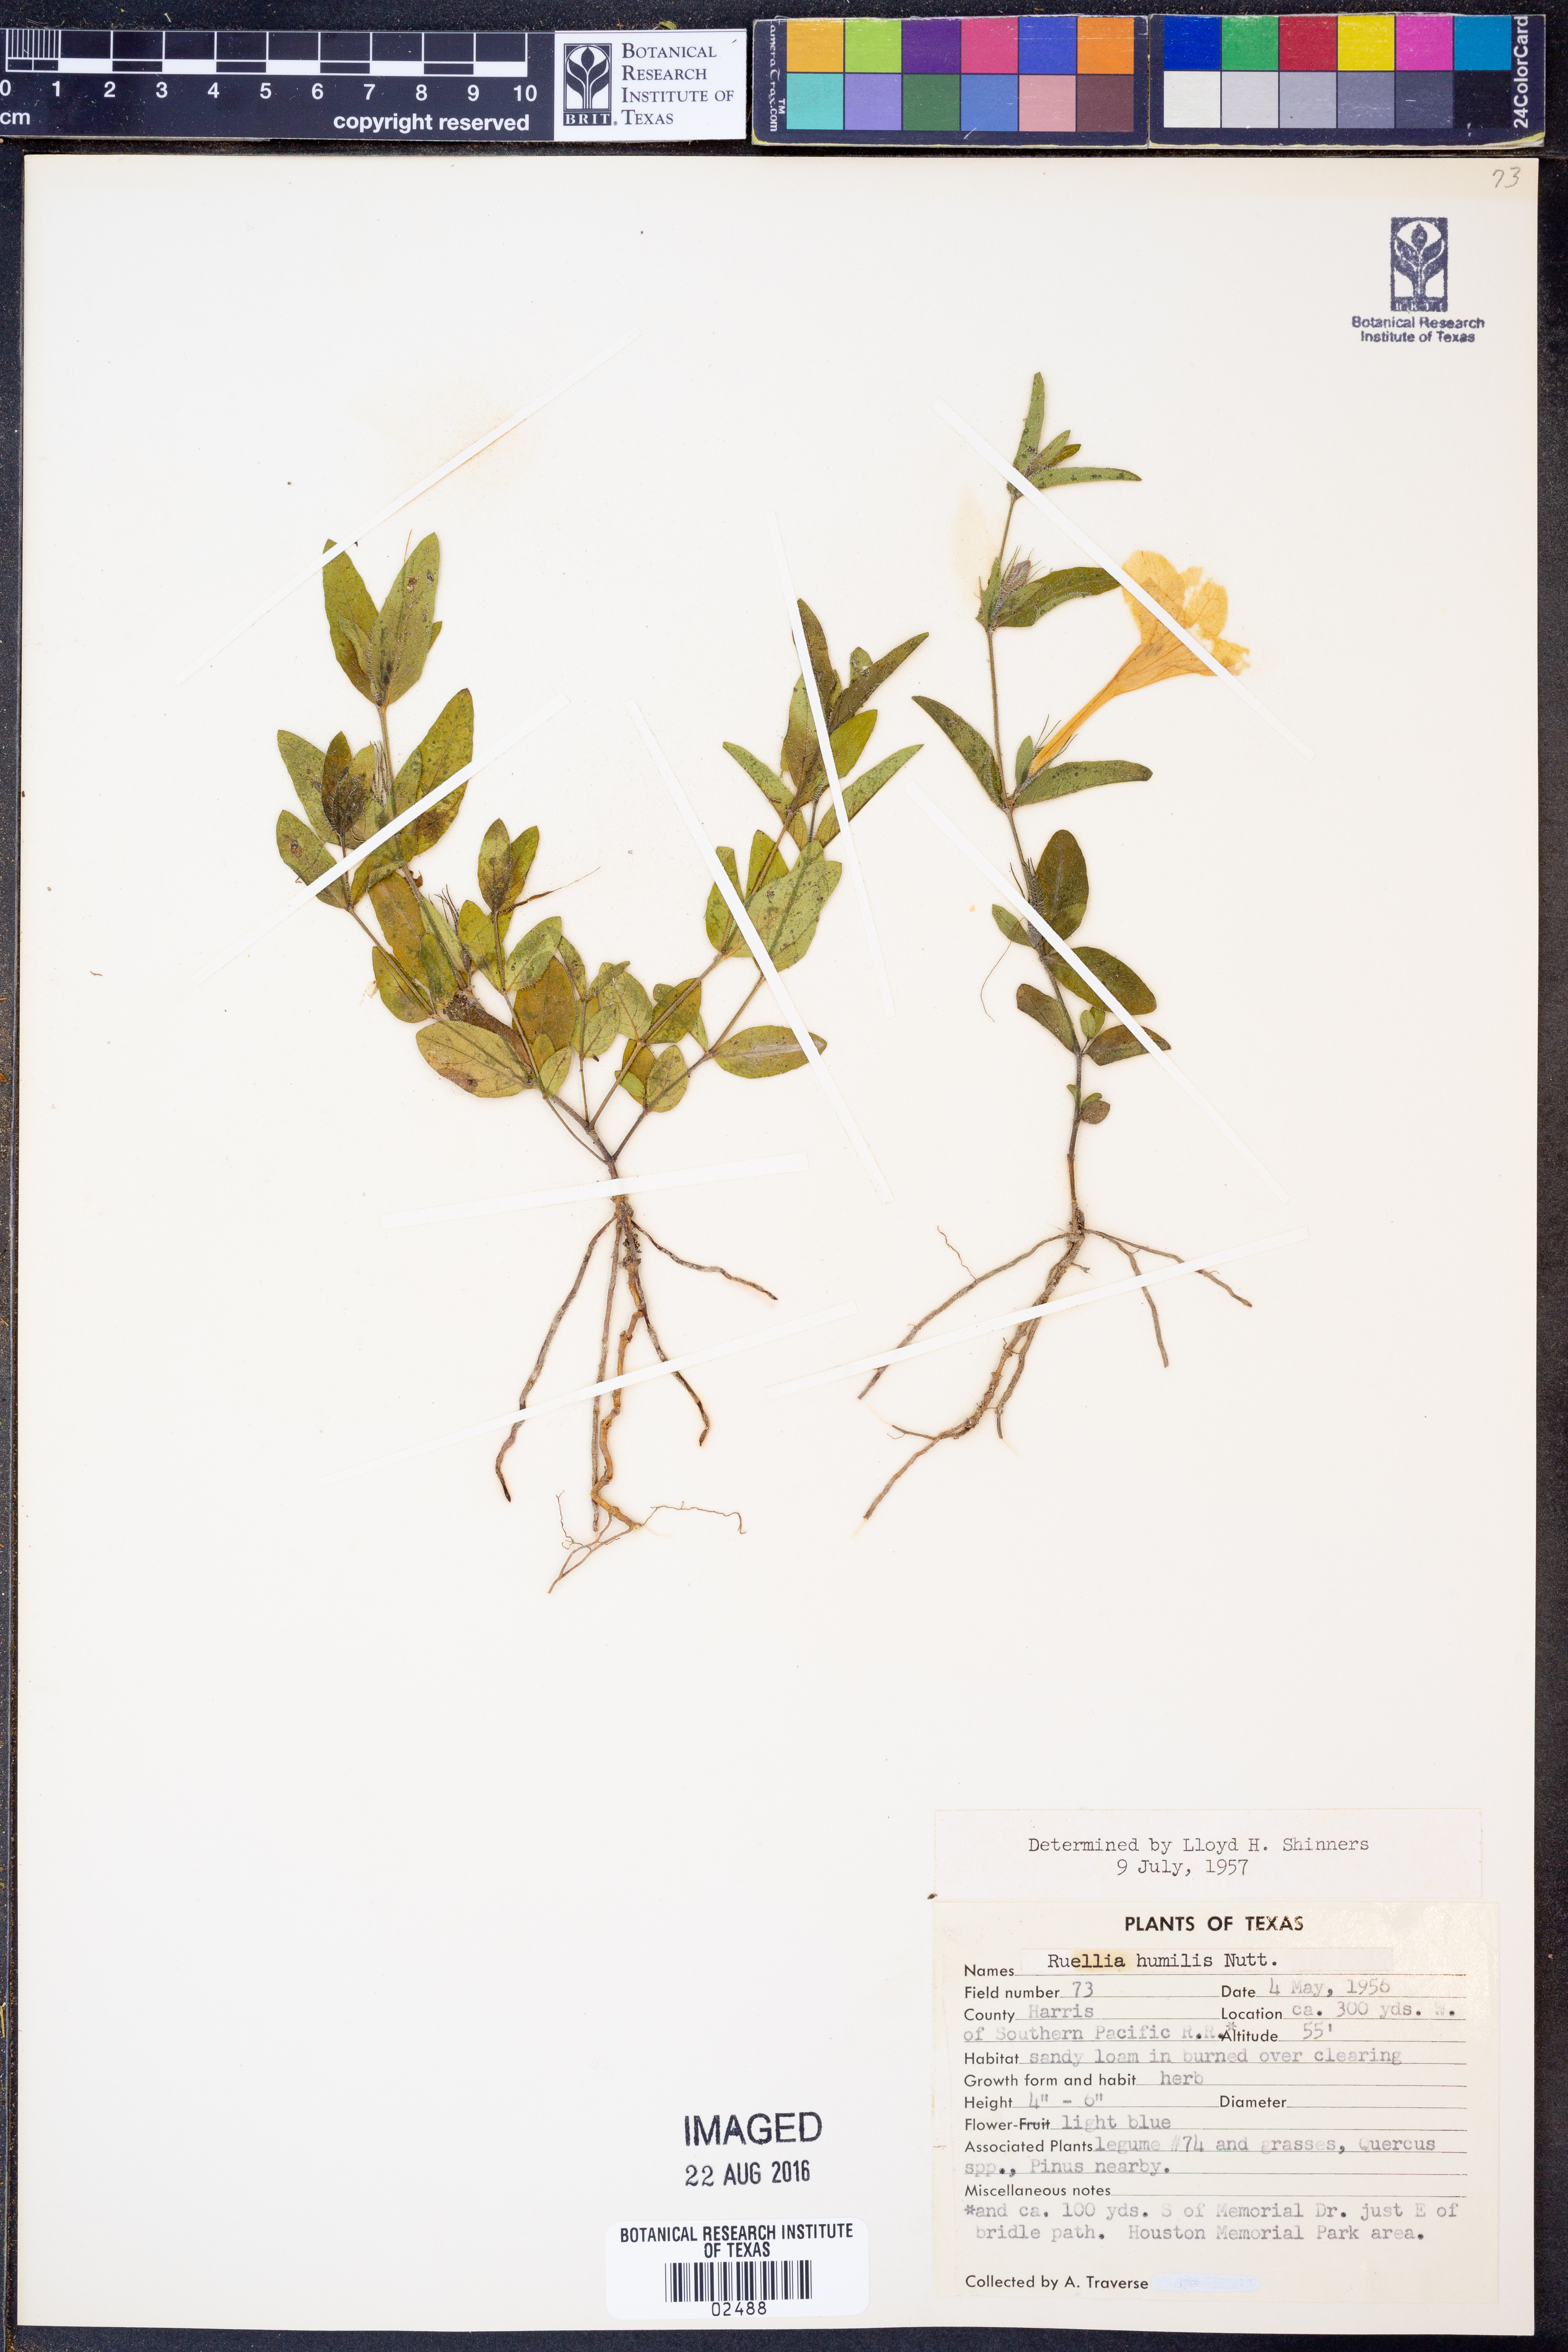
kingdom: Plantae
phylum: Tracheophyta
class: Magnoliopsida
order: Lamiales
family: Acanthaceae
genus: Ruellia
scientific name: Ruellia humilis
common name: Fringe-leaf ruellia
